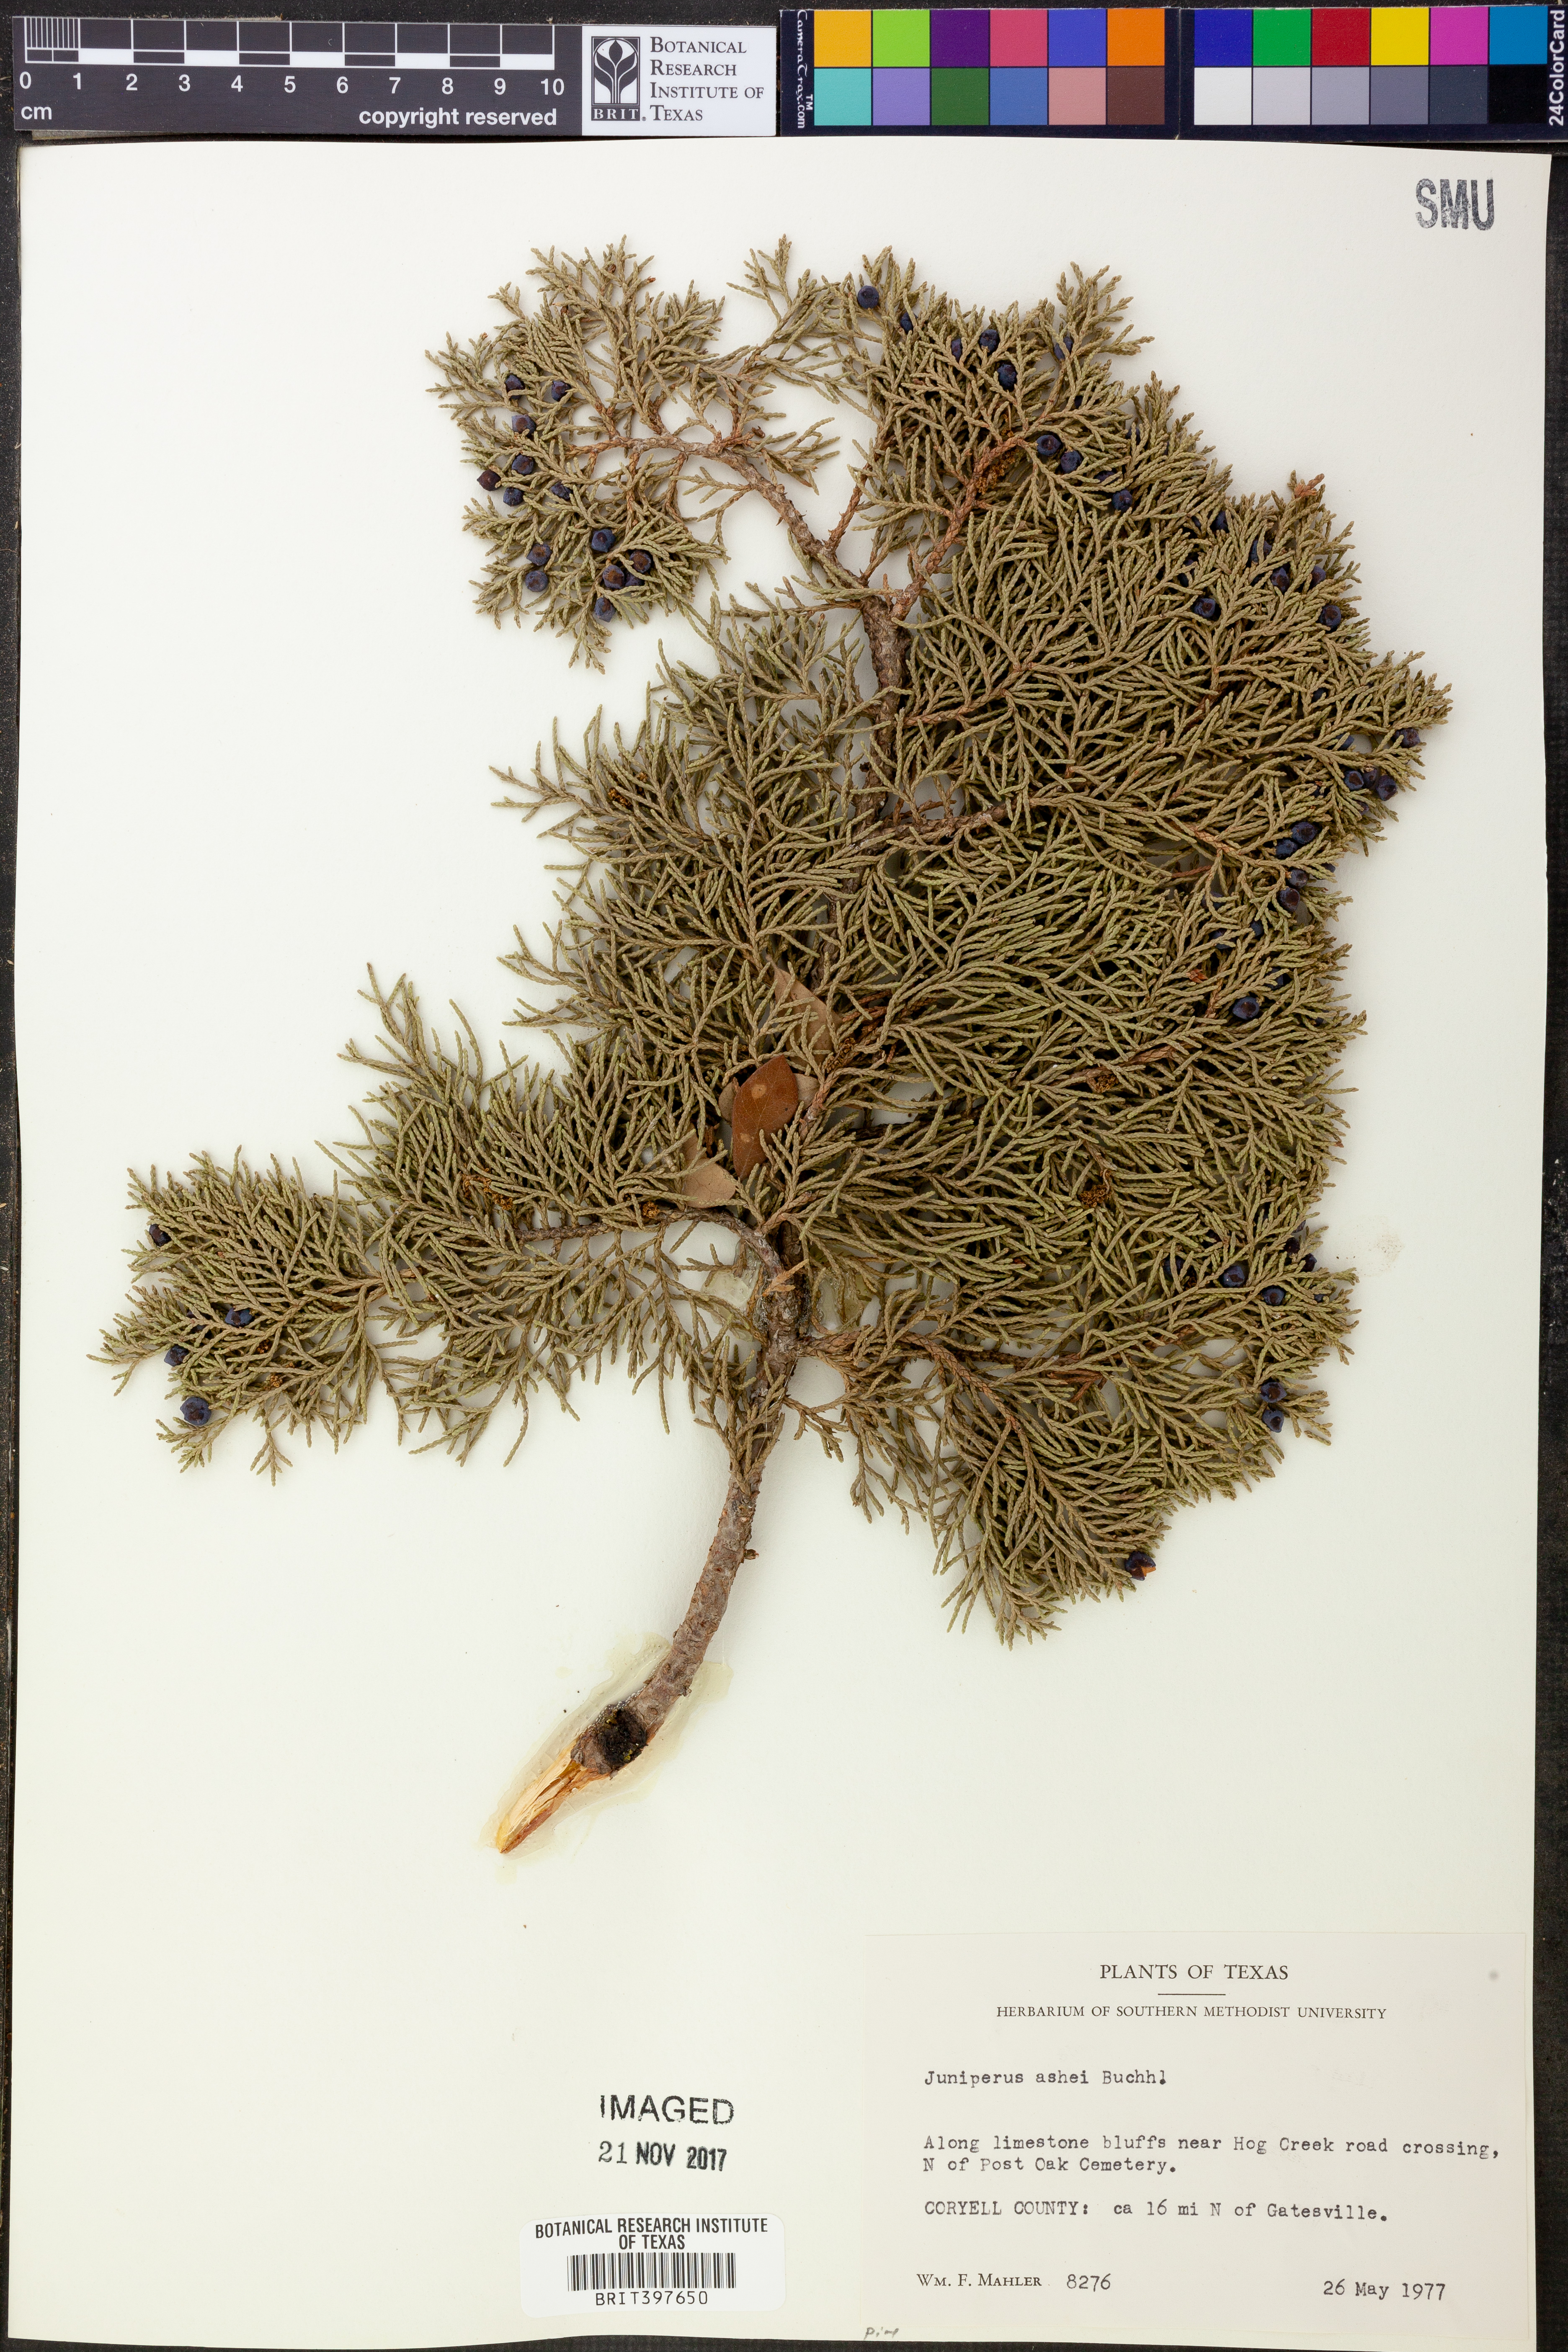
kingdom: Plantae
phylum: Tracheophyta
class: Pinopsida
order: Pinales
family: Cupressaceae
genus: Juniperus
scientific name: Juniperus ashei
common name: Mexican juniper
